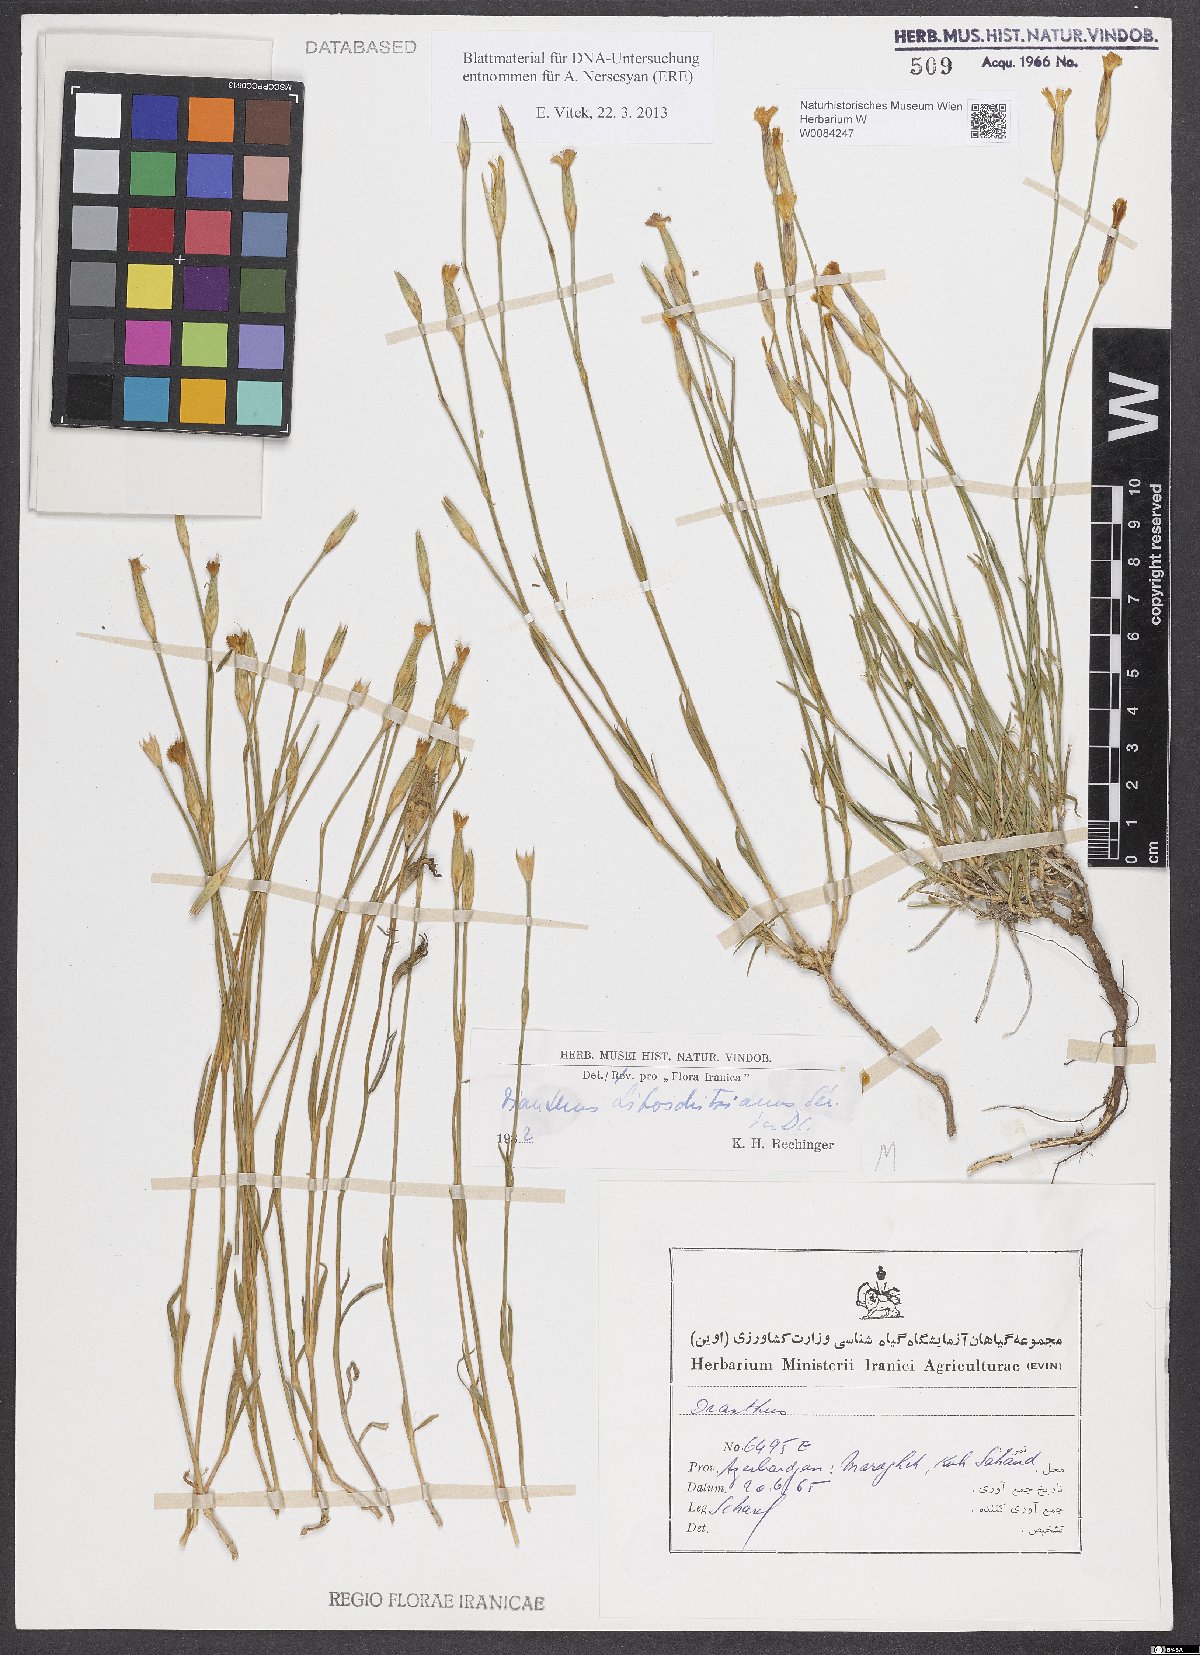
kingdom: Plantae
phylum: Tracheophyta
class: Magnoliopsida
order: Caryophyllales
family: Caryophyllaceae
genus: Dianthus
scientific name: Dianthus cretaceus
